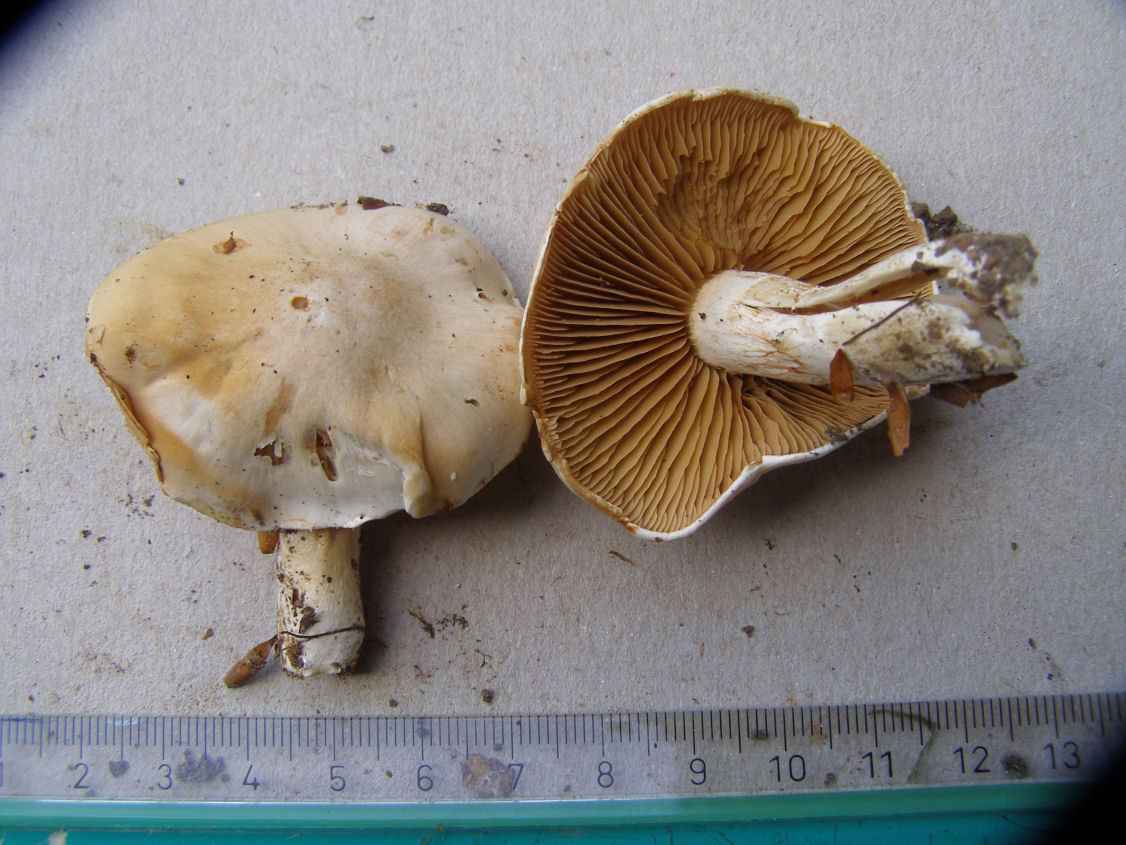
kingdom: Fungi
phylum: Basidiomycota
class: Agaricomycetes
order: Agaricales
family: Cortinariaceae
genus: Thaxterogaster
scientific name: Thaxterogaster barbatus
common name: elfenbens-slørhat
